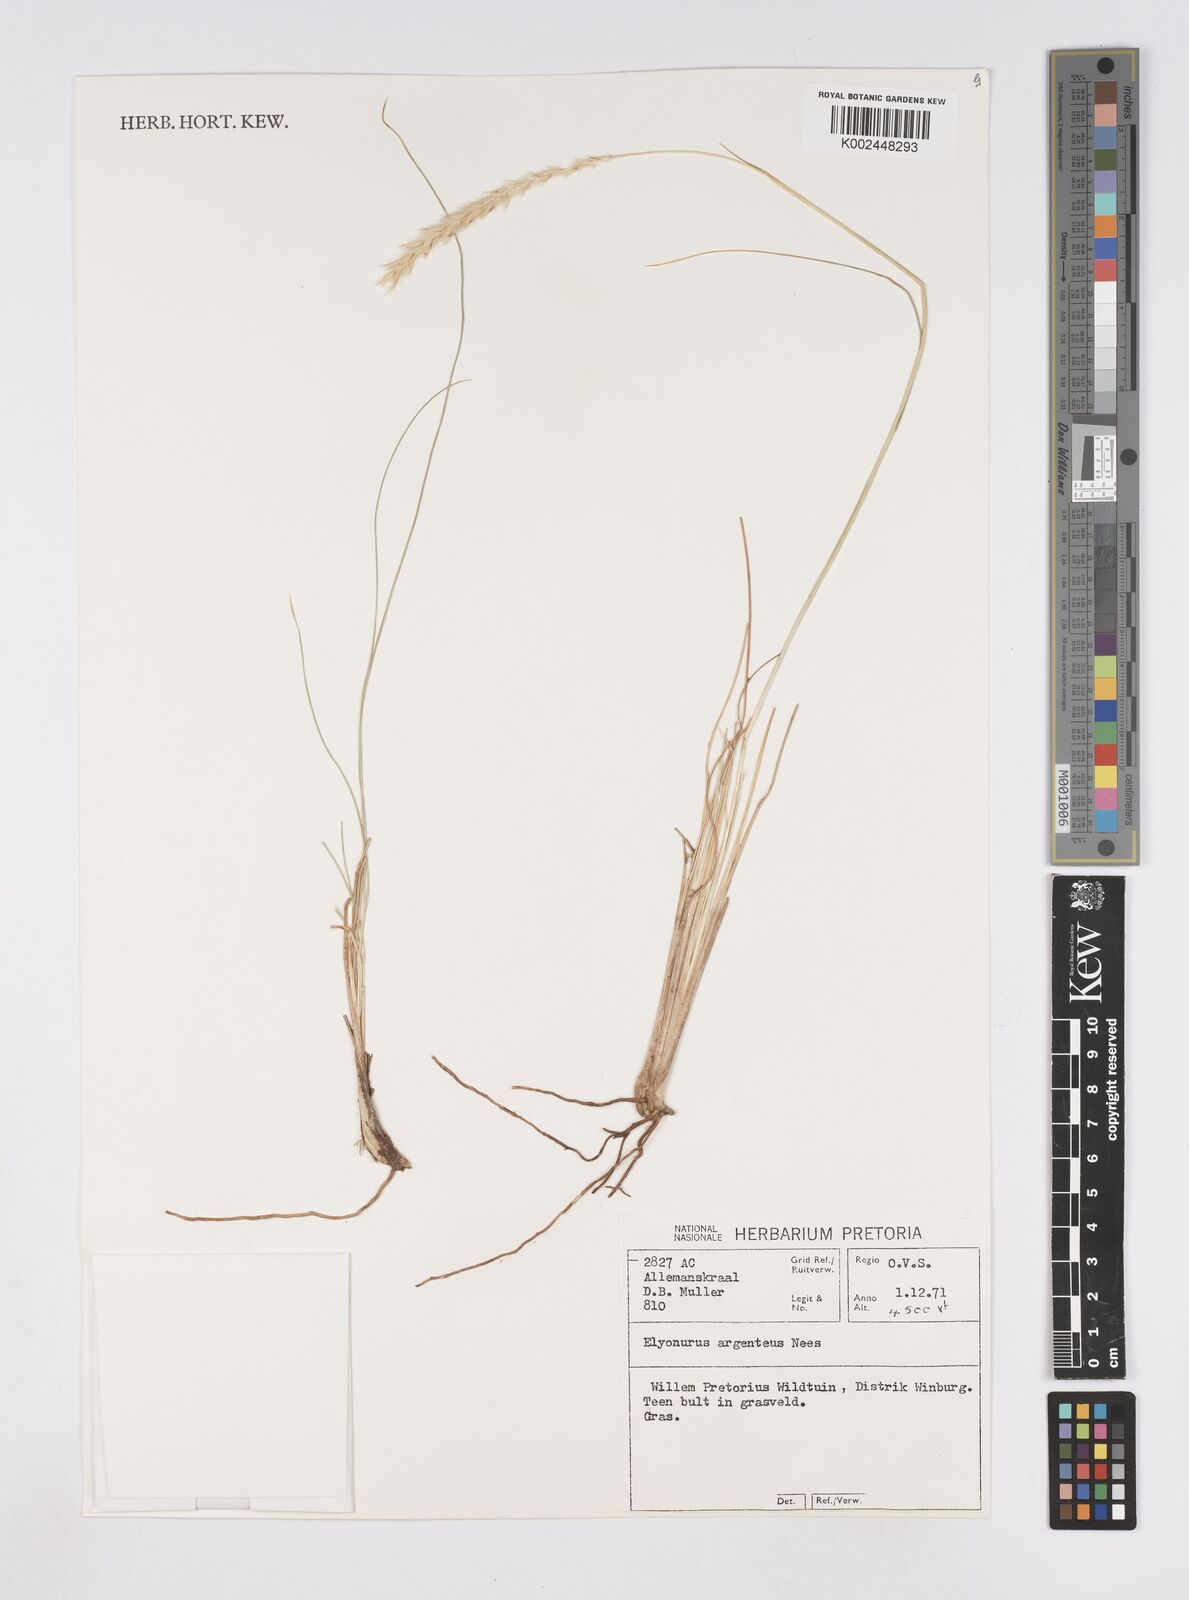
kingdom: Plantae
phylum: Tracheophyta
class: Liliopsida
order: Poales
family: Poaceae
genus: Elionurus
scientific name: Elionurus muticus
